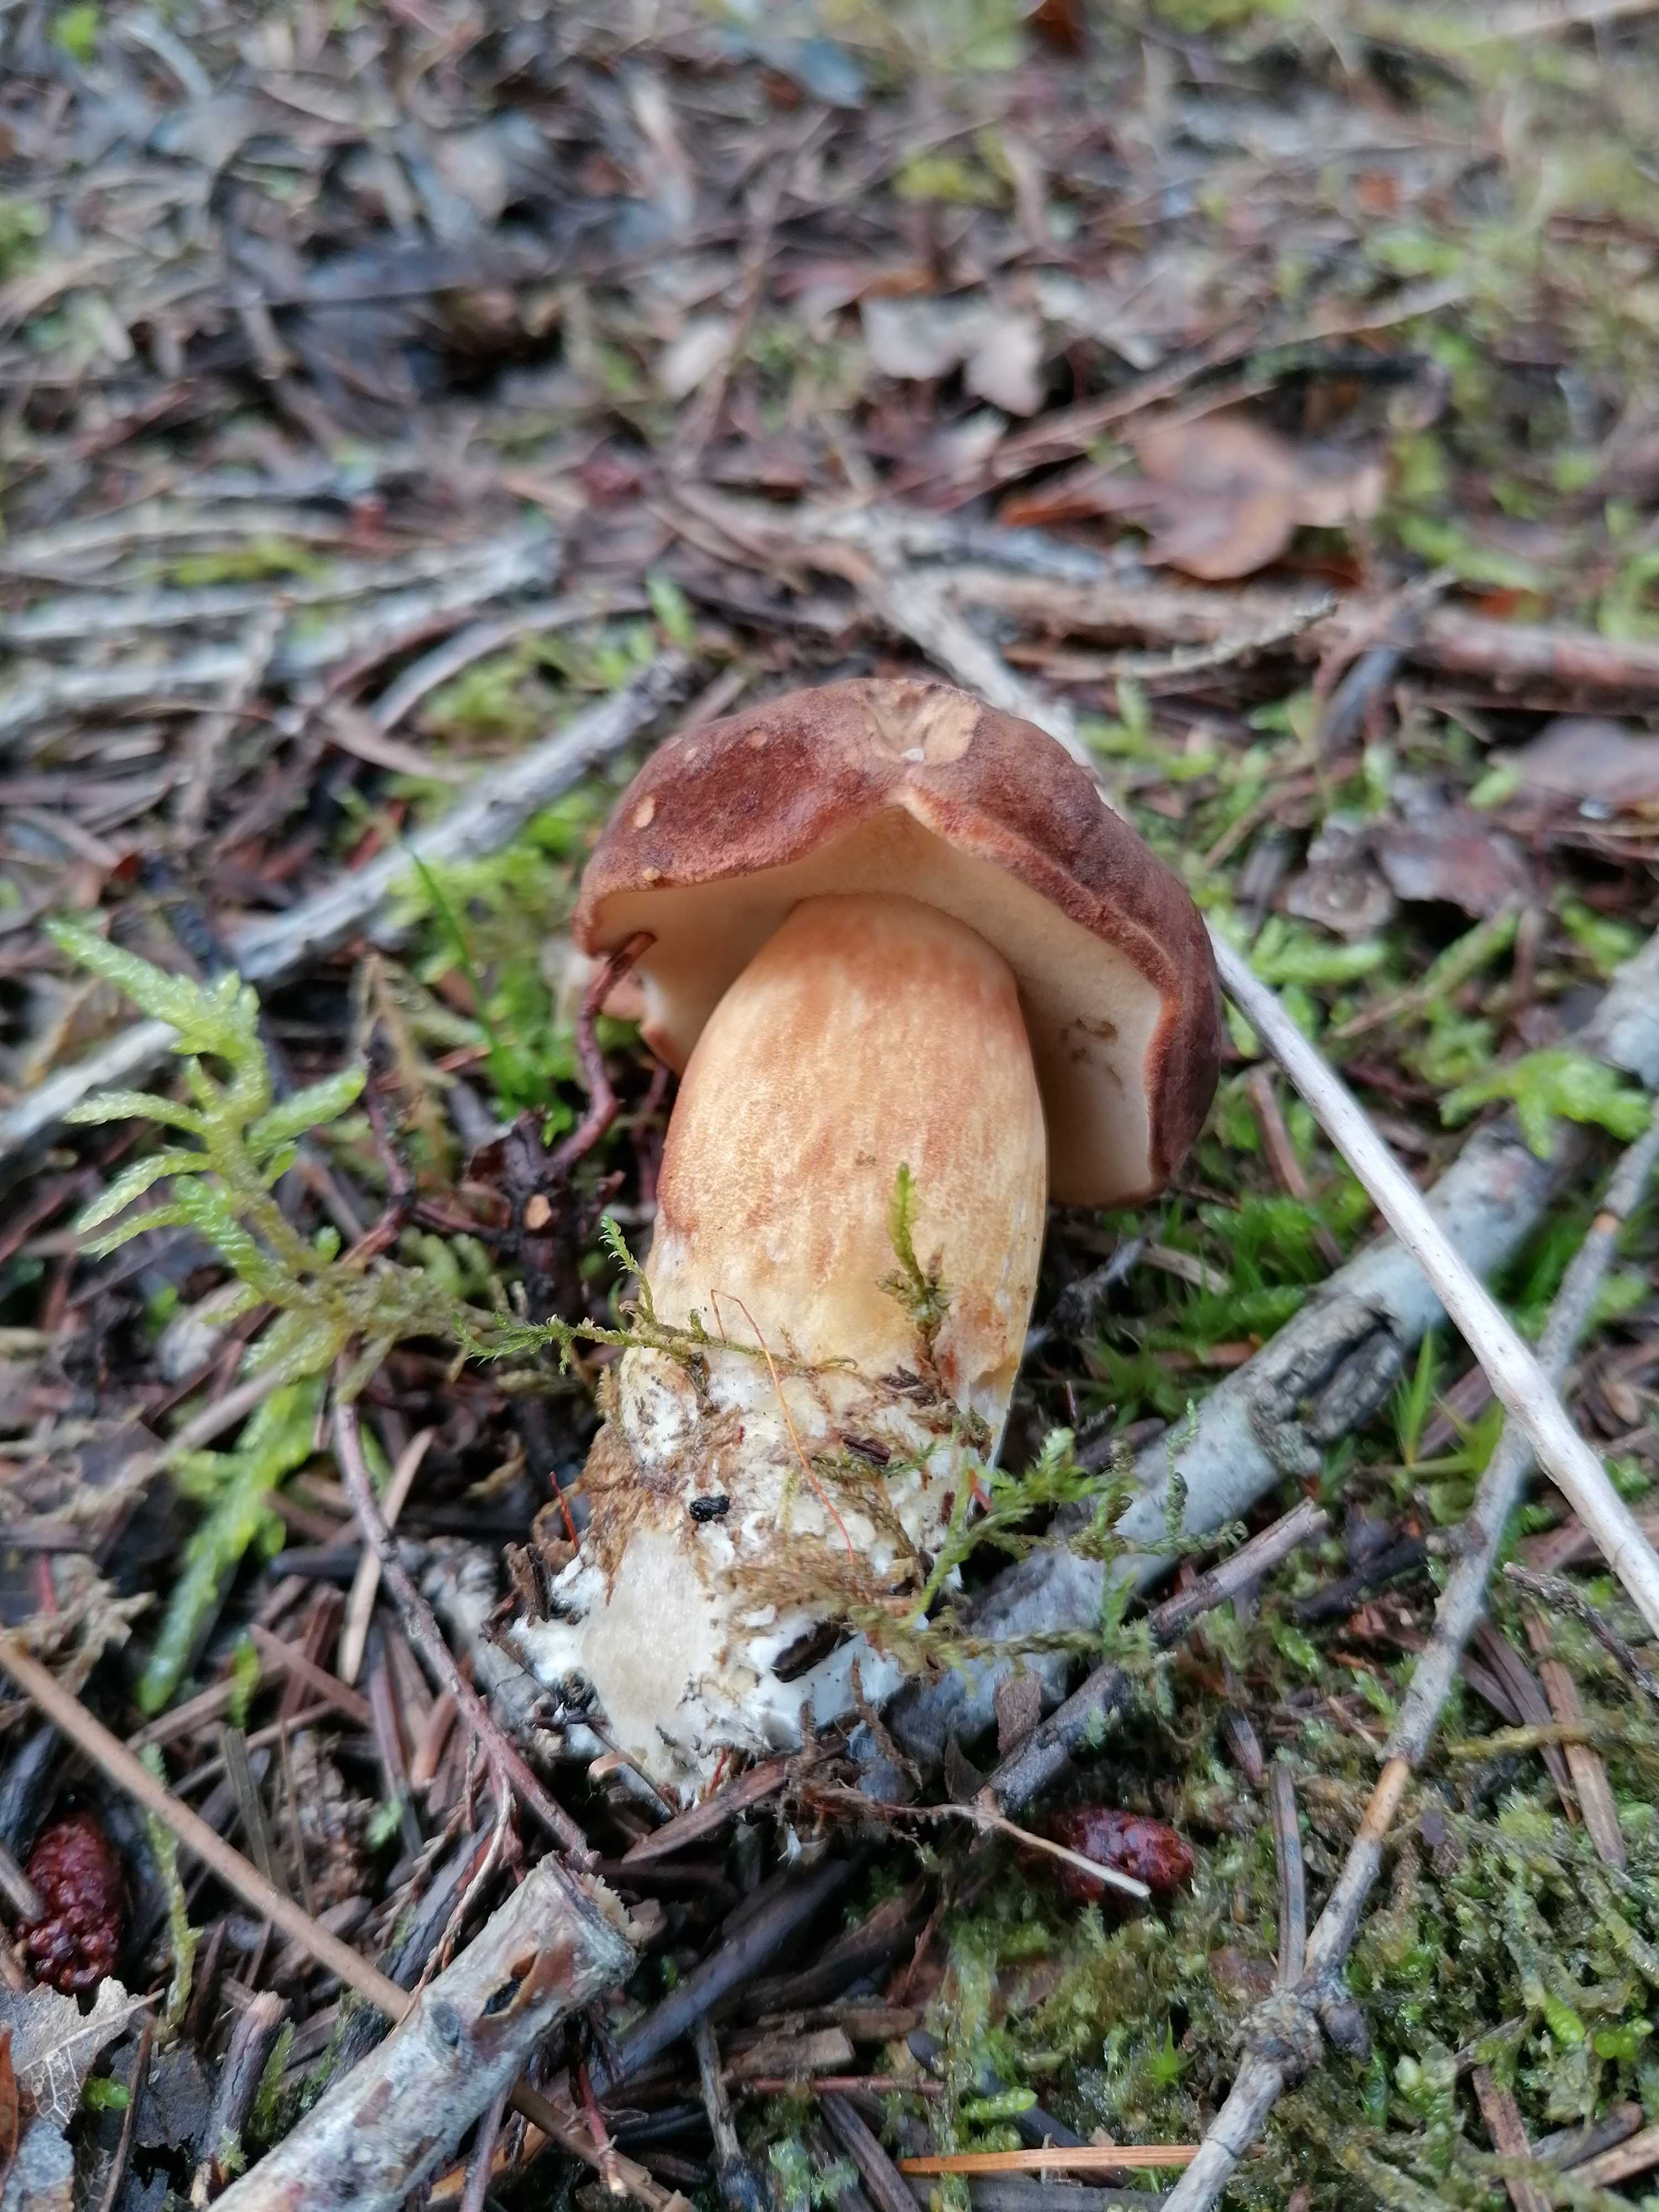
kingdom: Fungi
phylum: Basidiomycota
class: Agaricomycetes
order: Boletales
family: Boletaceae
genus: Imleria
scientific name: Imleria badia
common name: brunstokket rørhat
